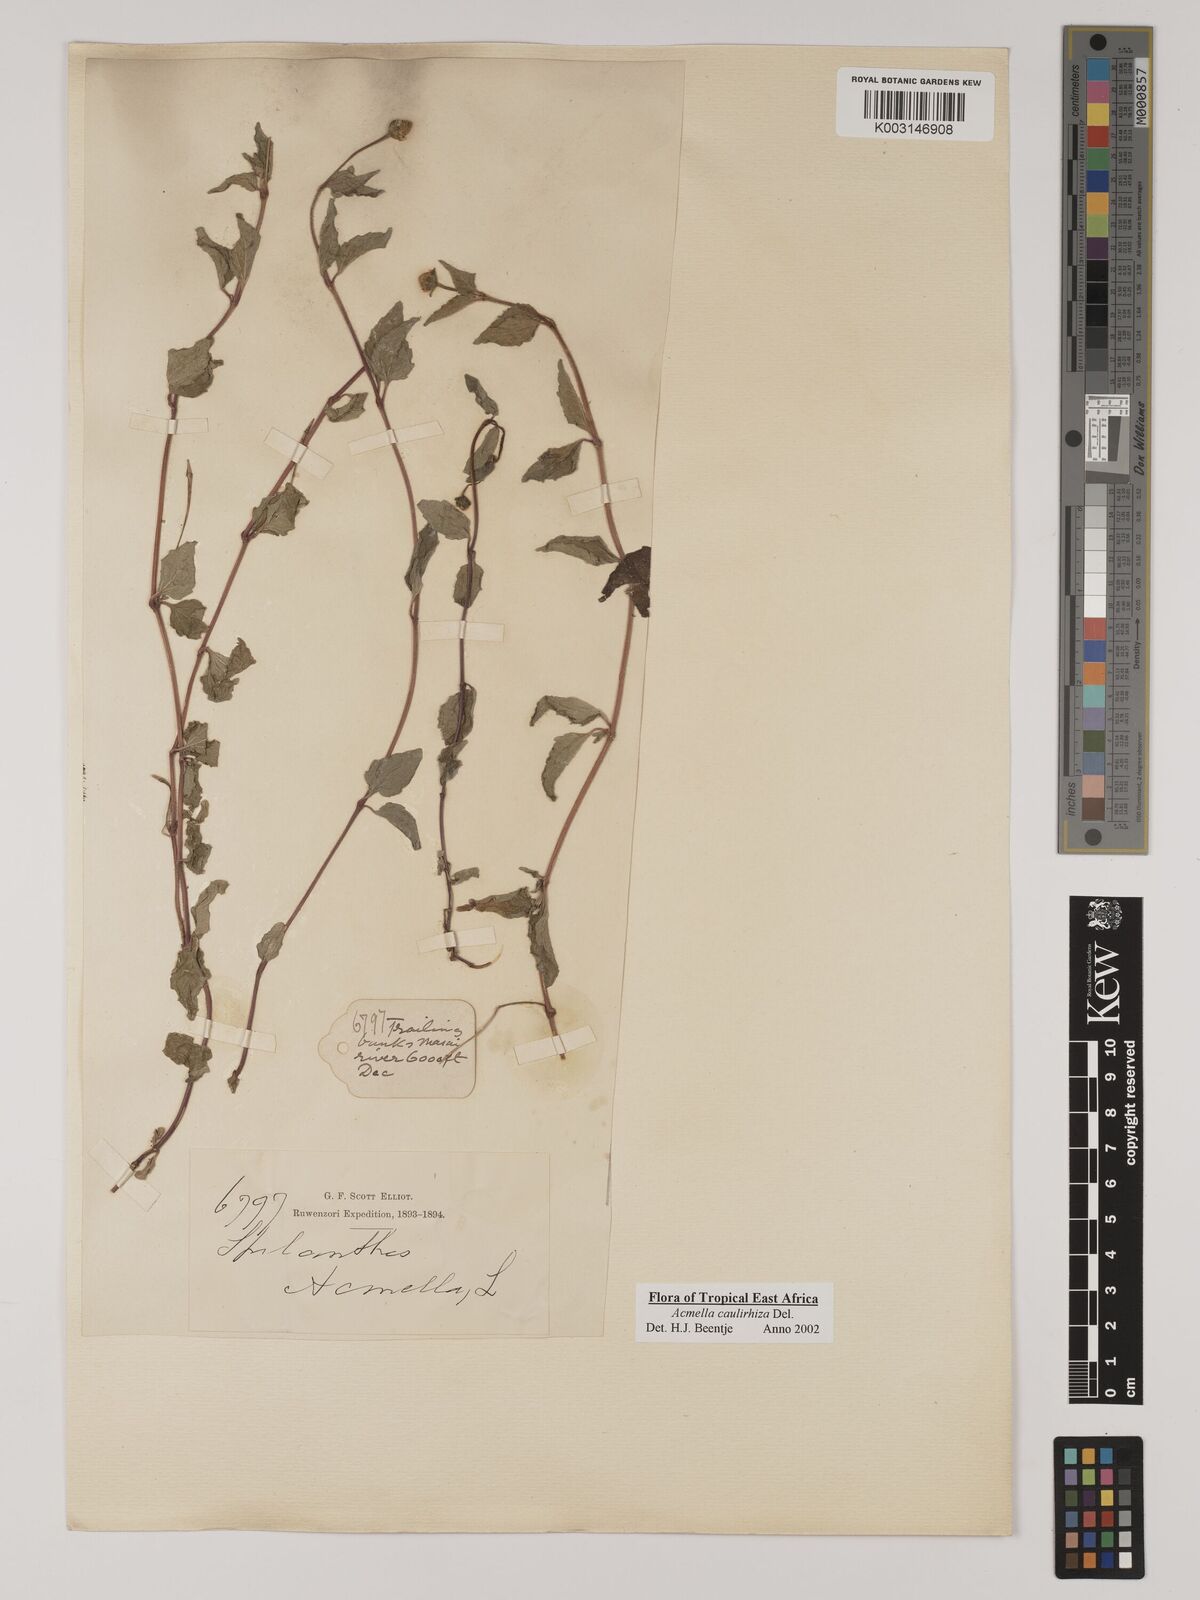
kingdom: Plantae
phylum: Tracheophyta
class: Magnoliopsida
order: Asterales
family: Asteraceae
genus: Acmella
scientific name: Acmella caulirhiza
